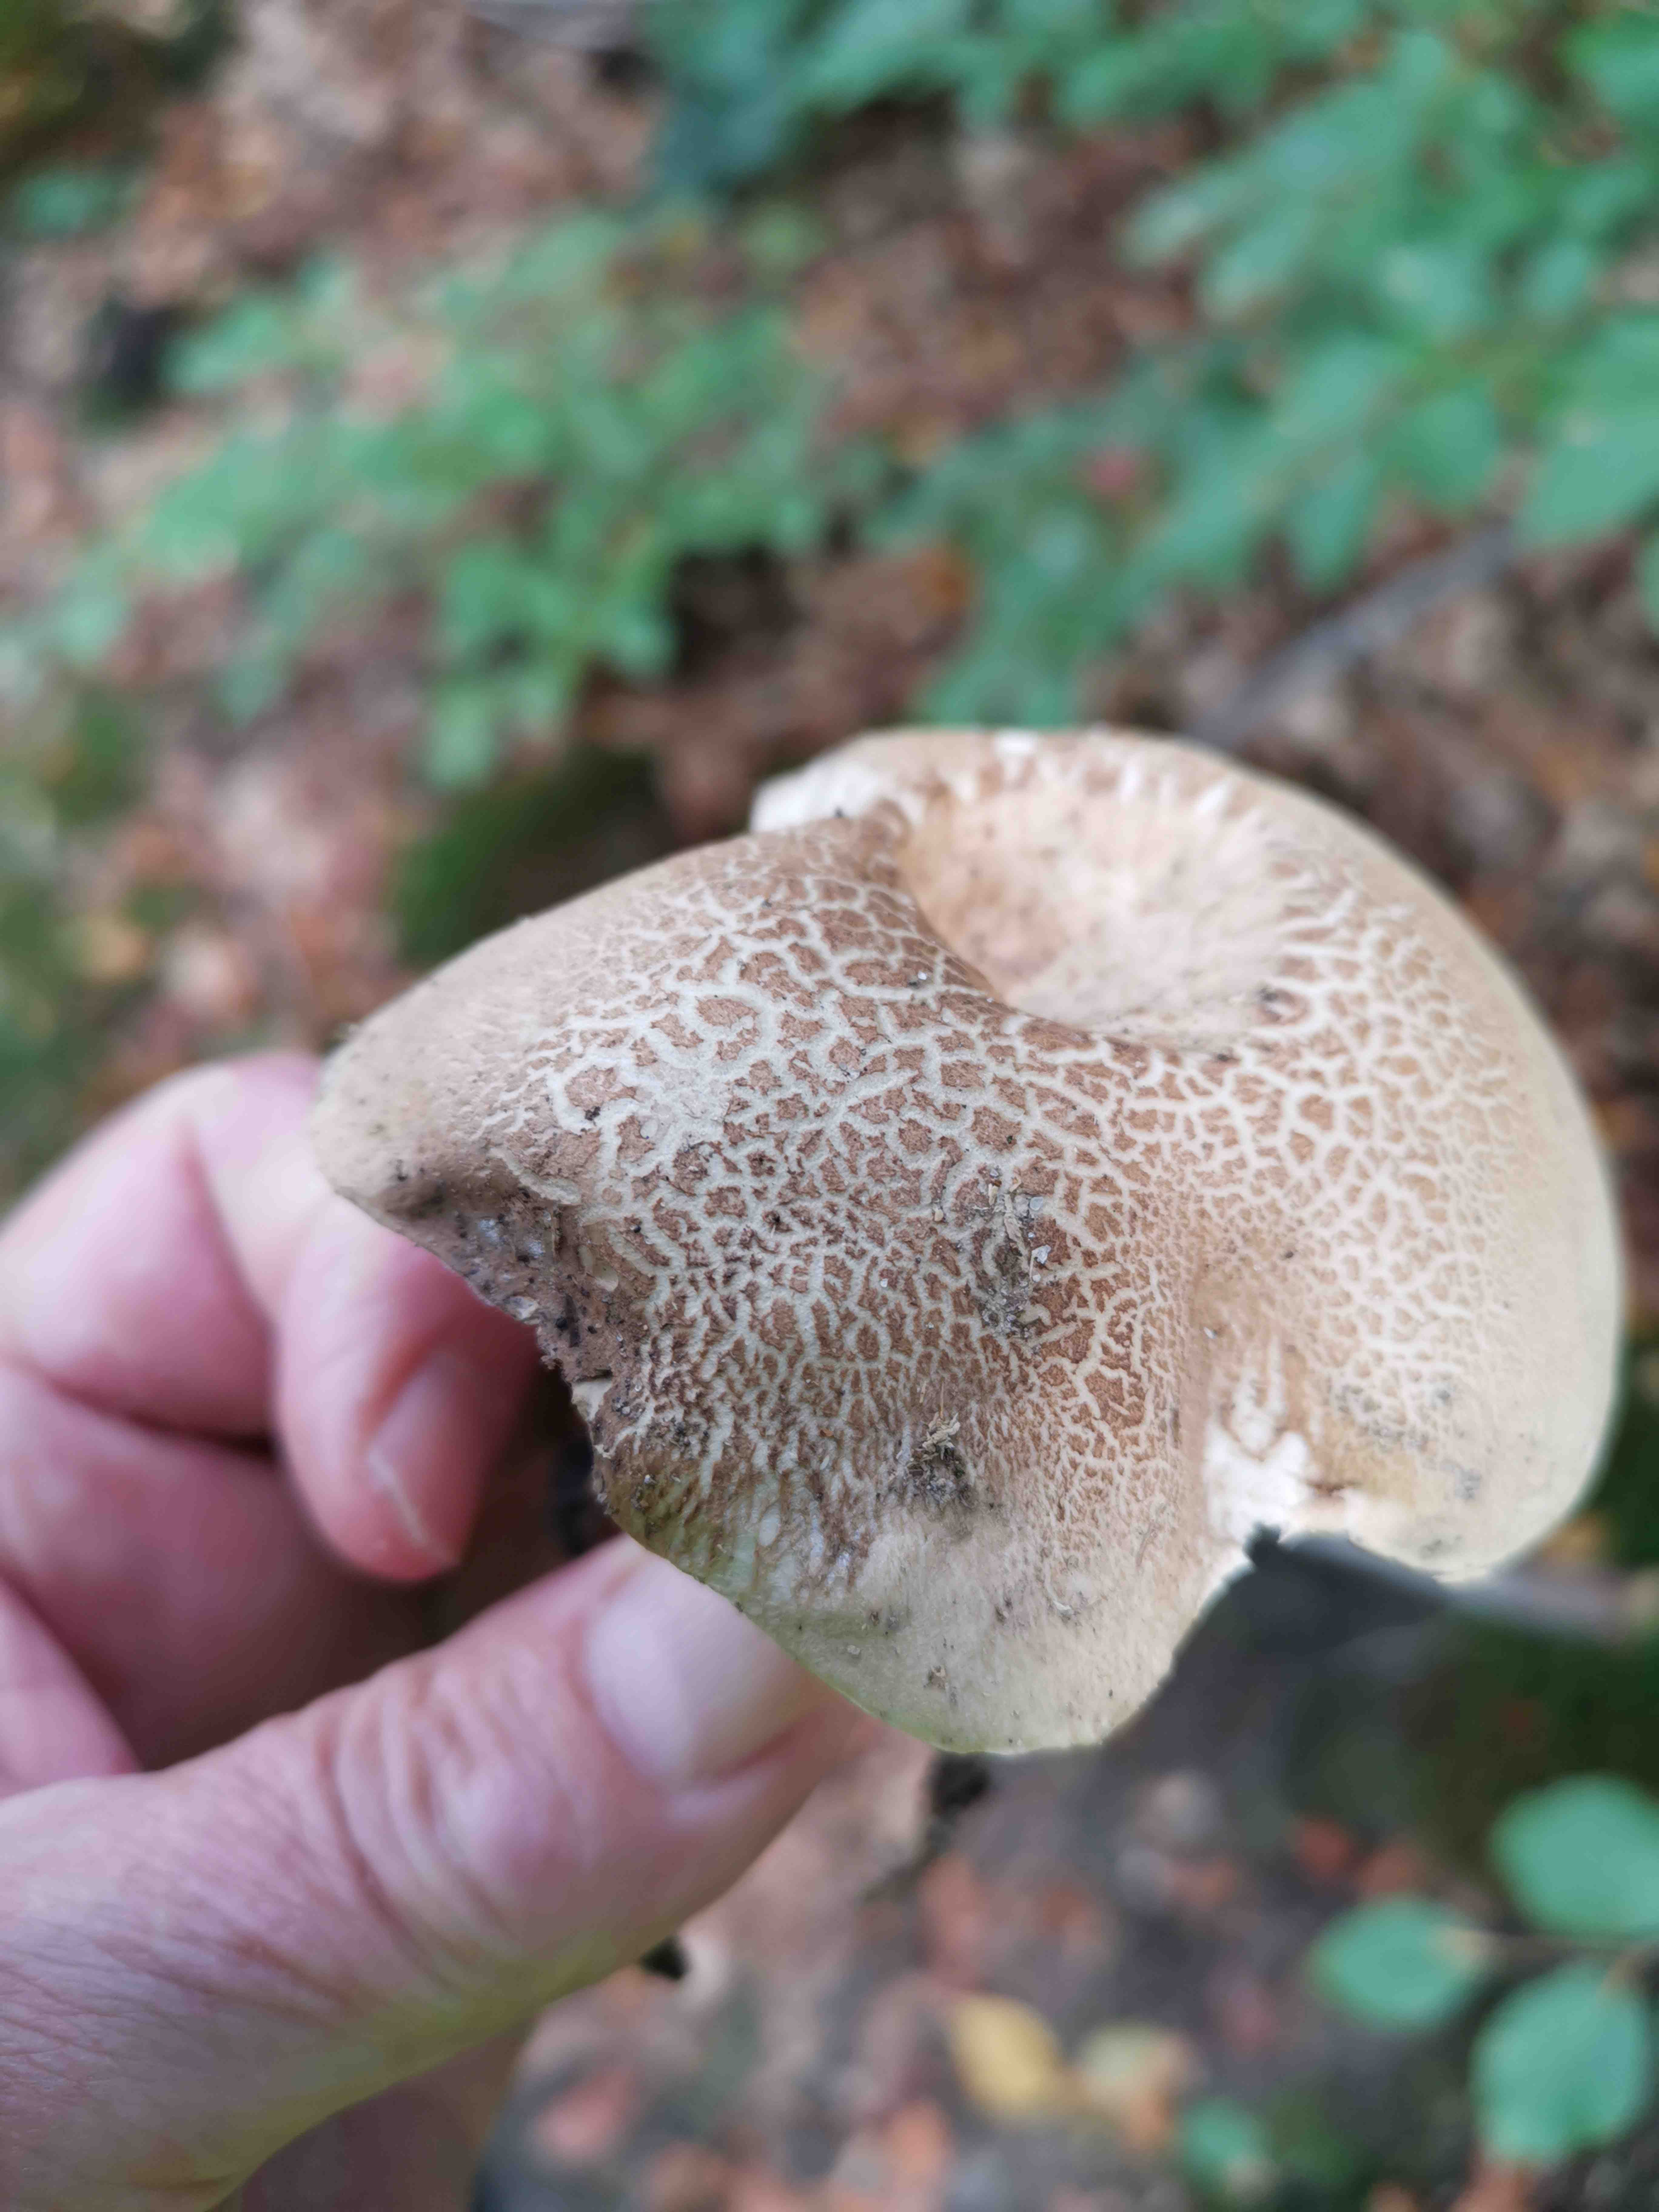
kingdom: Fungi
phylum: Basidiomycota
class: Agaricomycetes
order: Boletales
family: Boletaceae
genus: Caloboletus
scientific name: Caloboletus calopus
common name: skønfodet rørhat
